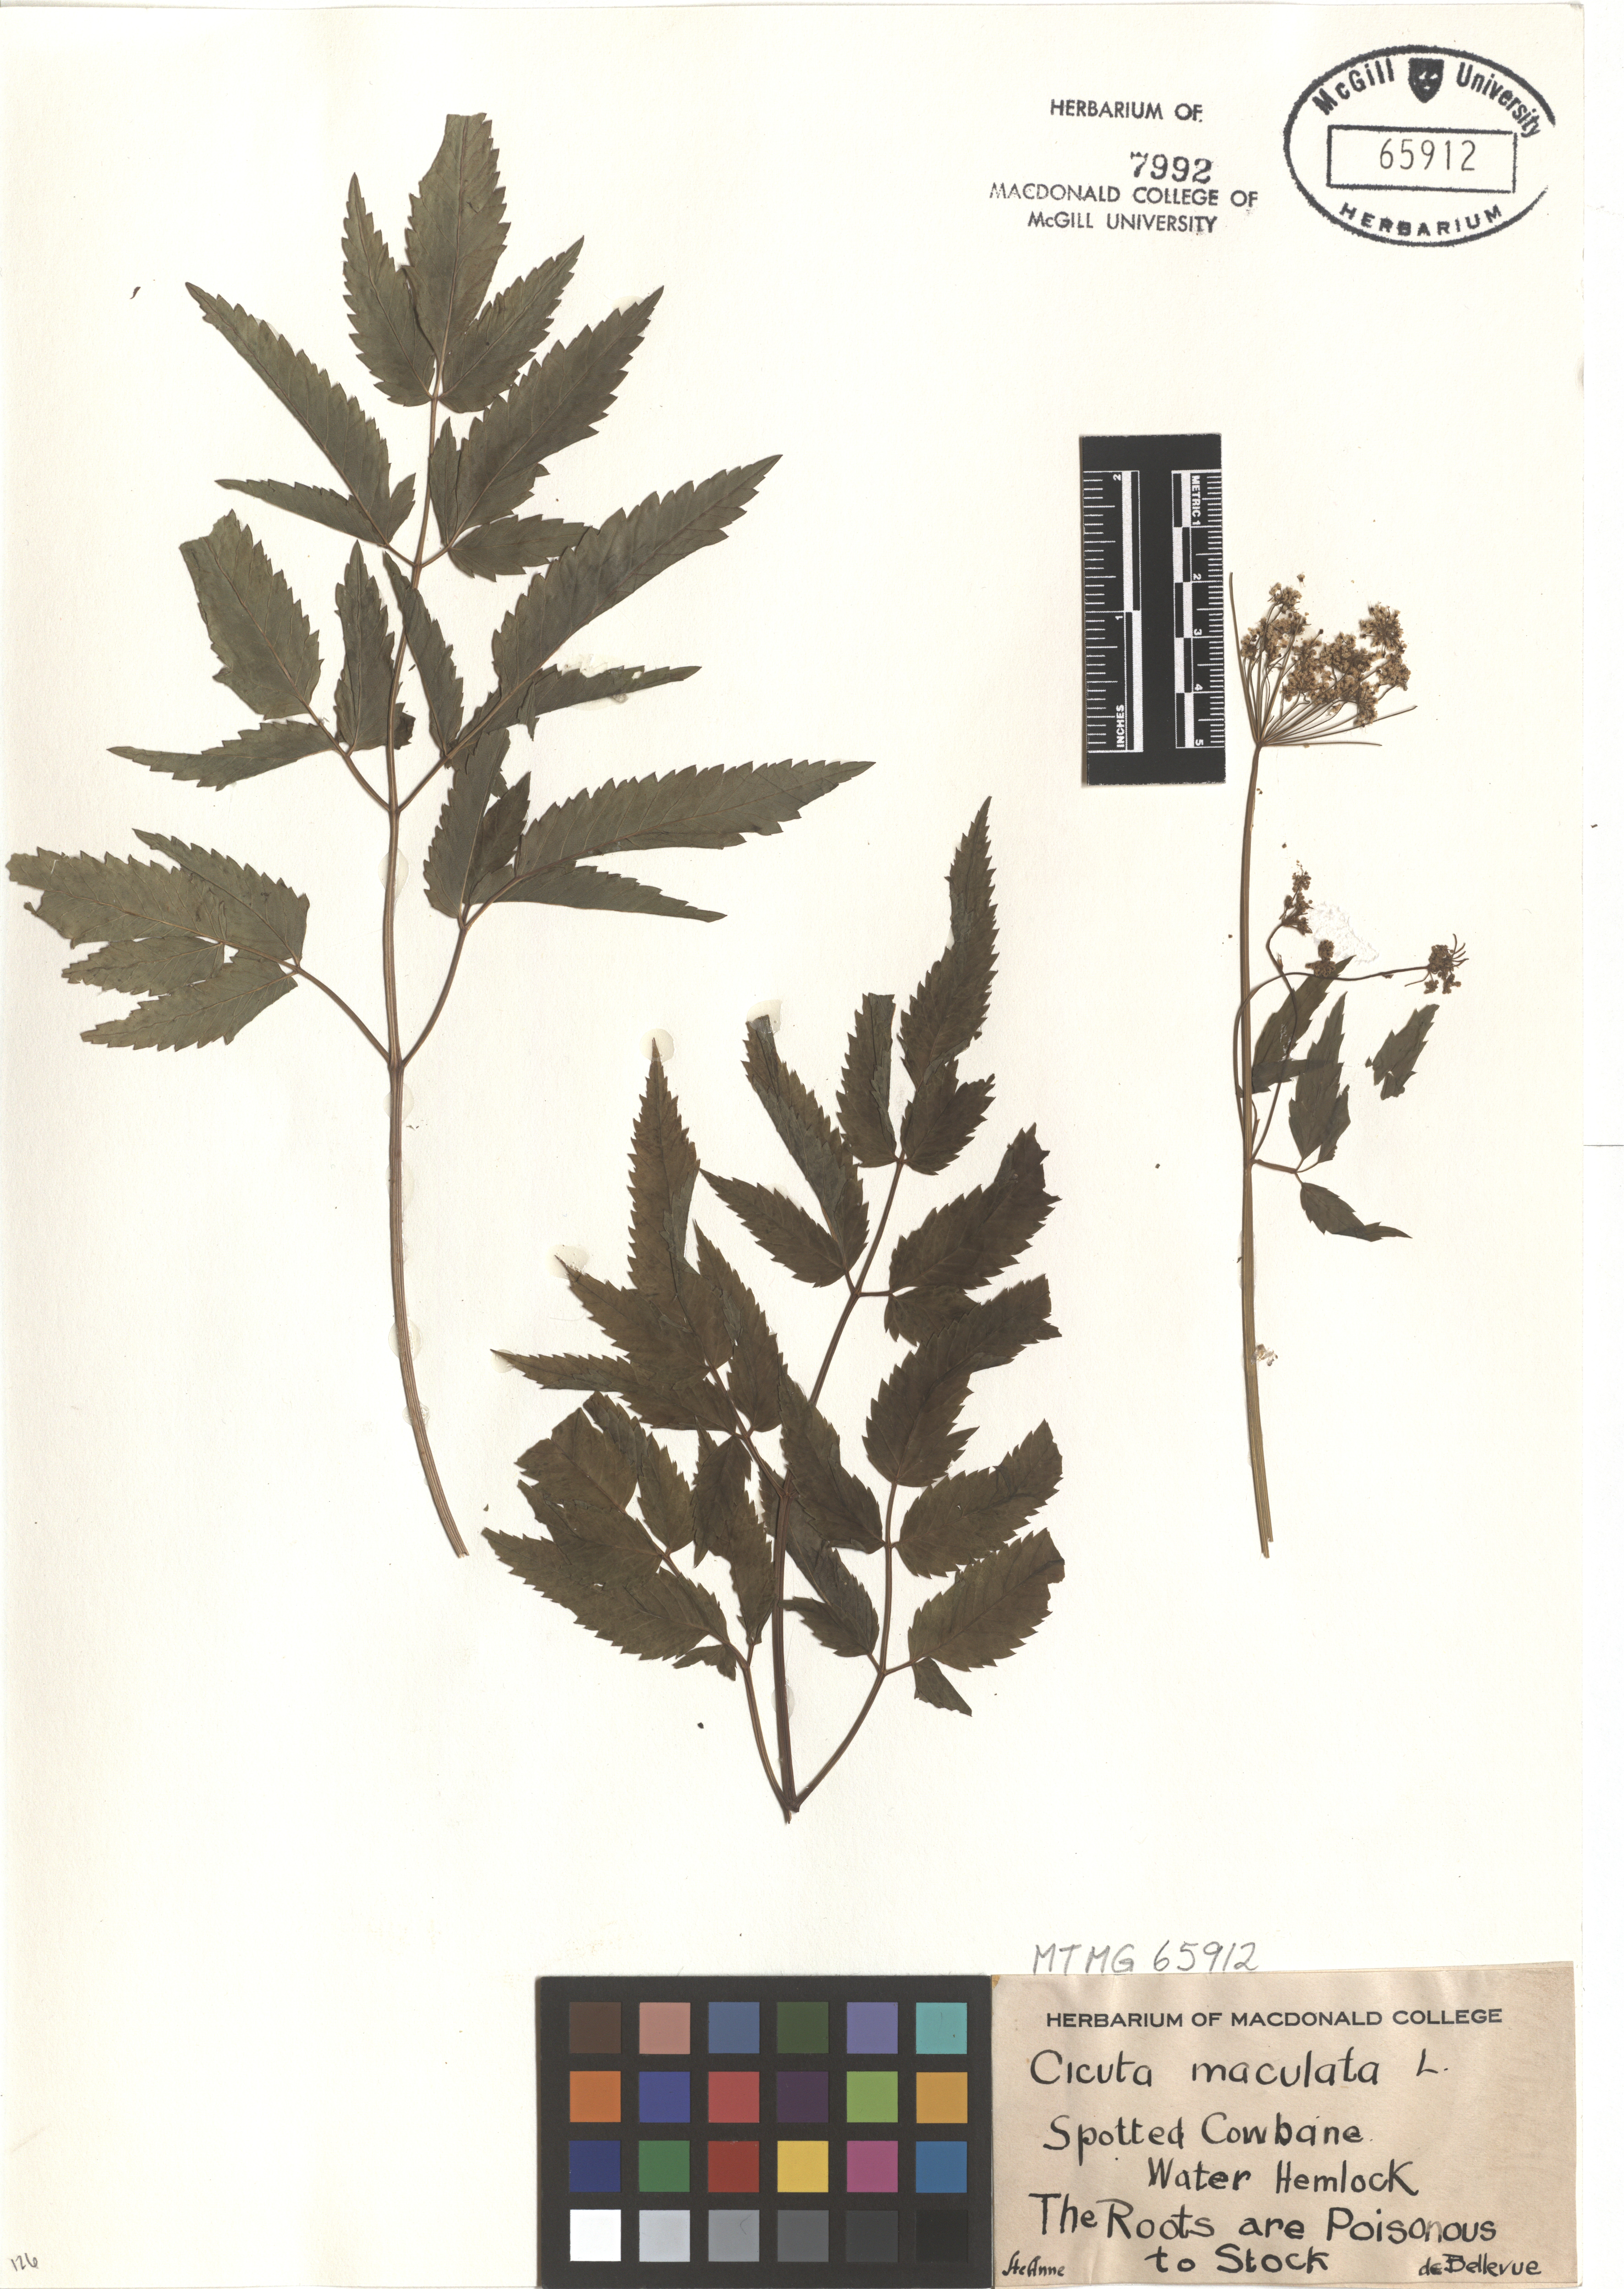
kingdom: Plantae
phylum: Tracheophyta
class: Magnoliopsida
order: Apiales
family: Apiaceae
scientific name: Apiaceae
